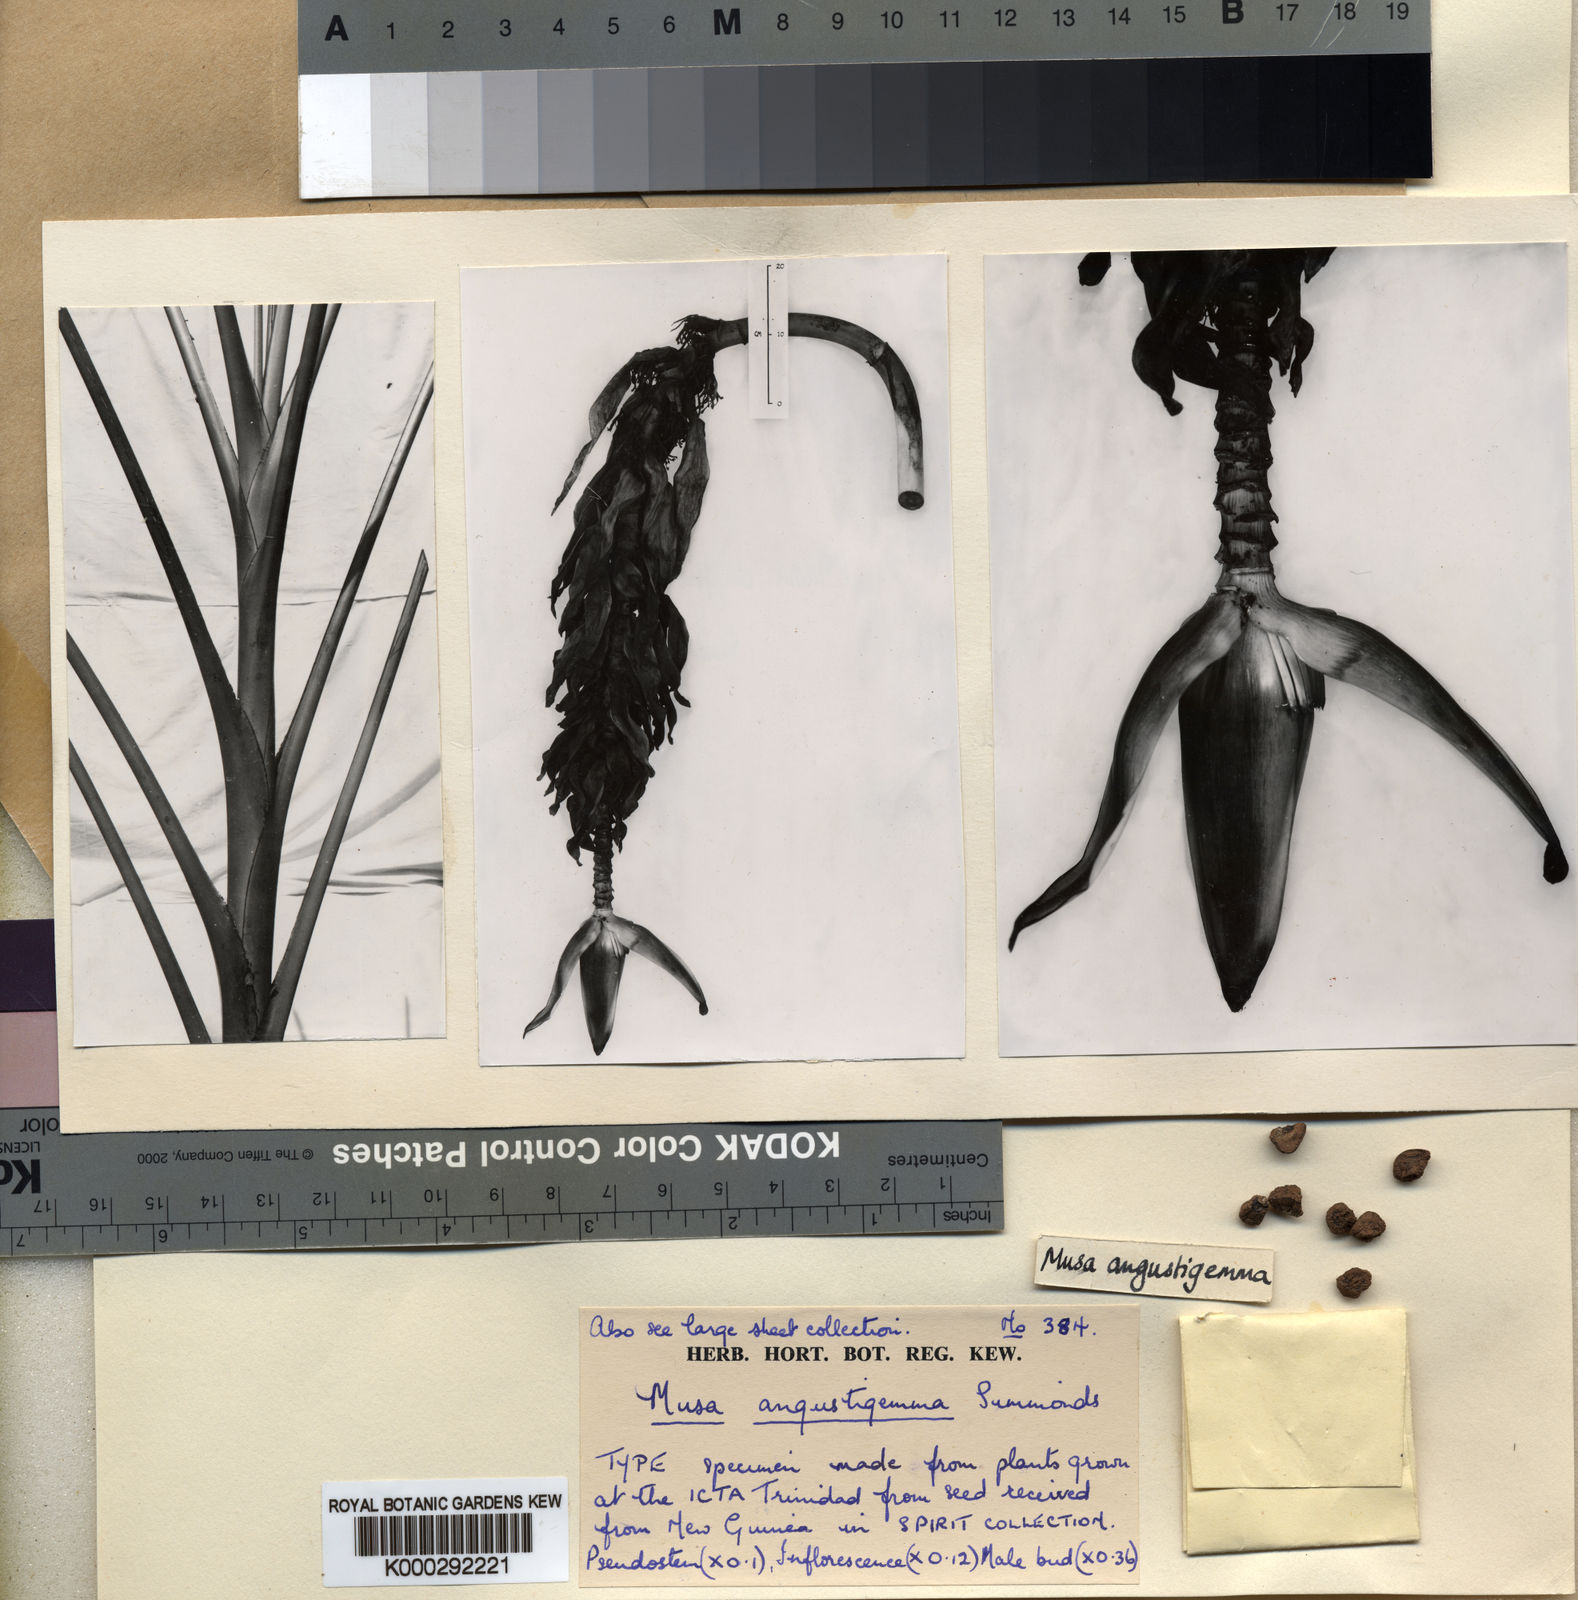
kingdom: Plantae
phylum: Tracheophyta
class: Liliopsida
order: Zingiberales
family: Musaceae
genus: Musa
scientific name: Musa peekelii
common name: Peekel's banana
